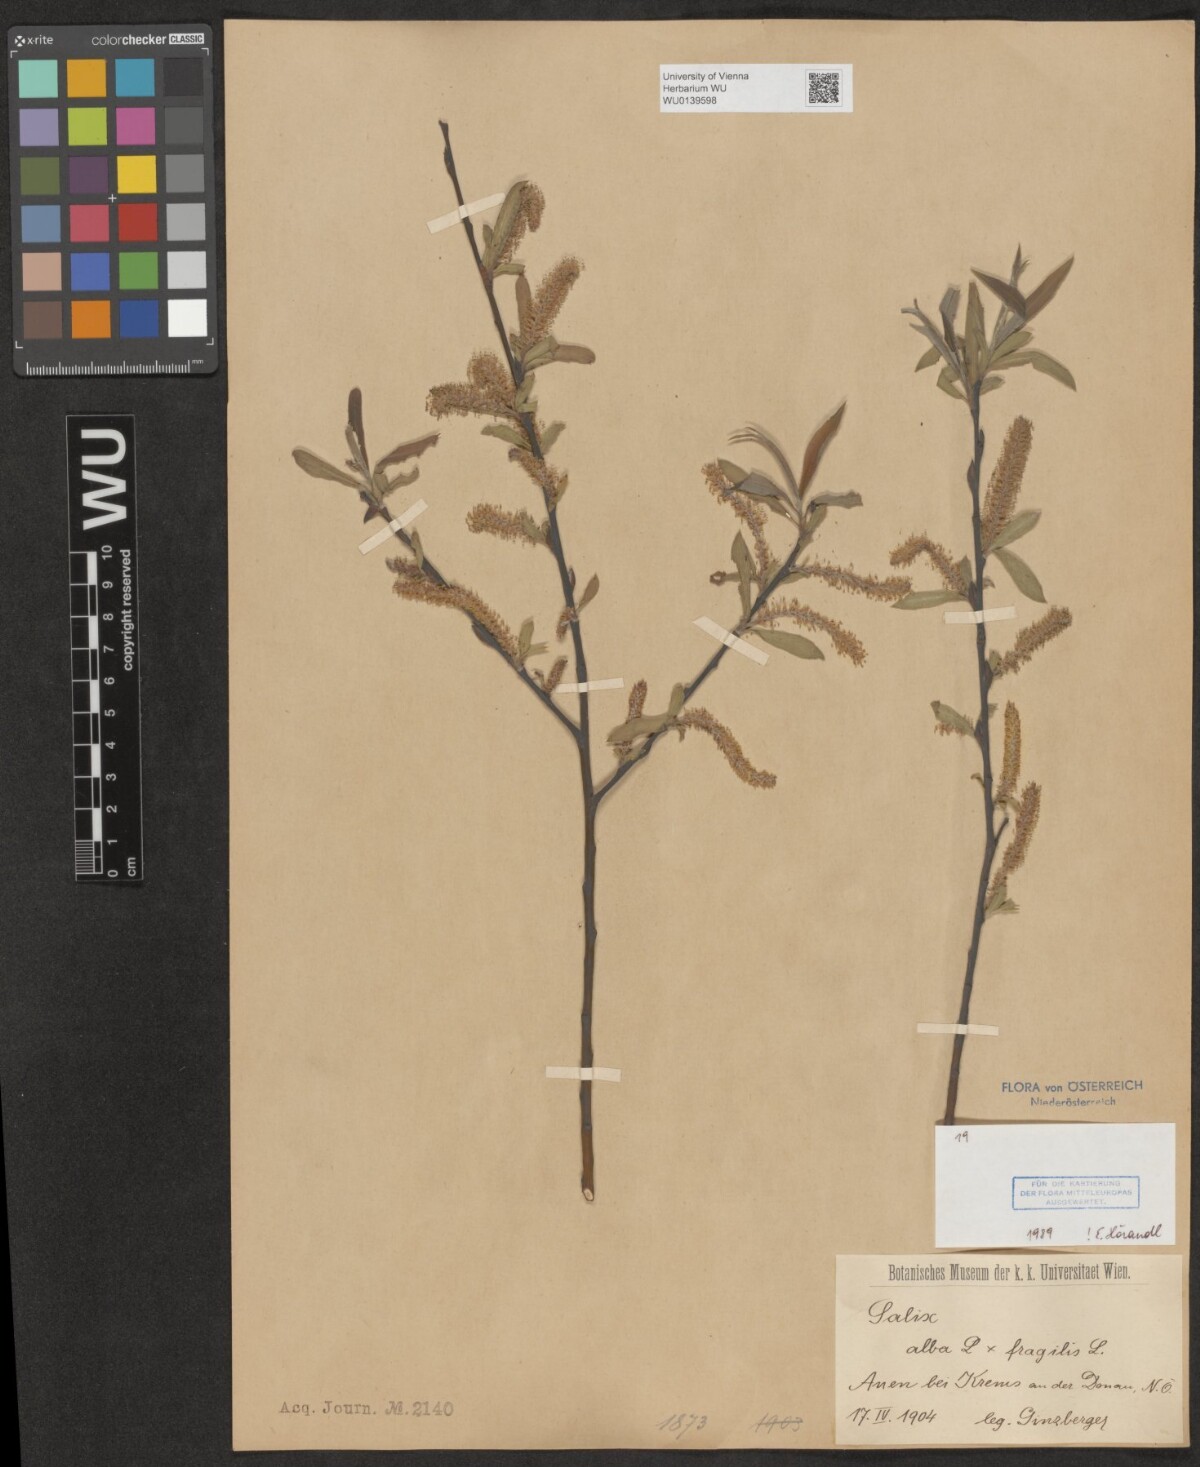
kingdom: Plantae
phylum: Tracheophyta
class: Magnoliopsida
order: Malpighiales
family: Salicaceae
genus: Salix
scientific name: Salix rubens
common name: Hybrid crack willow
